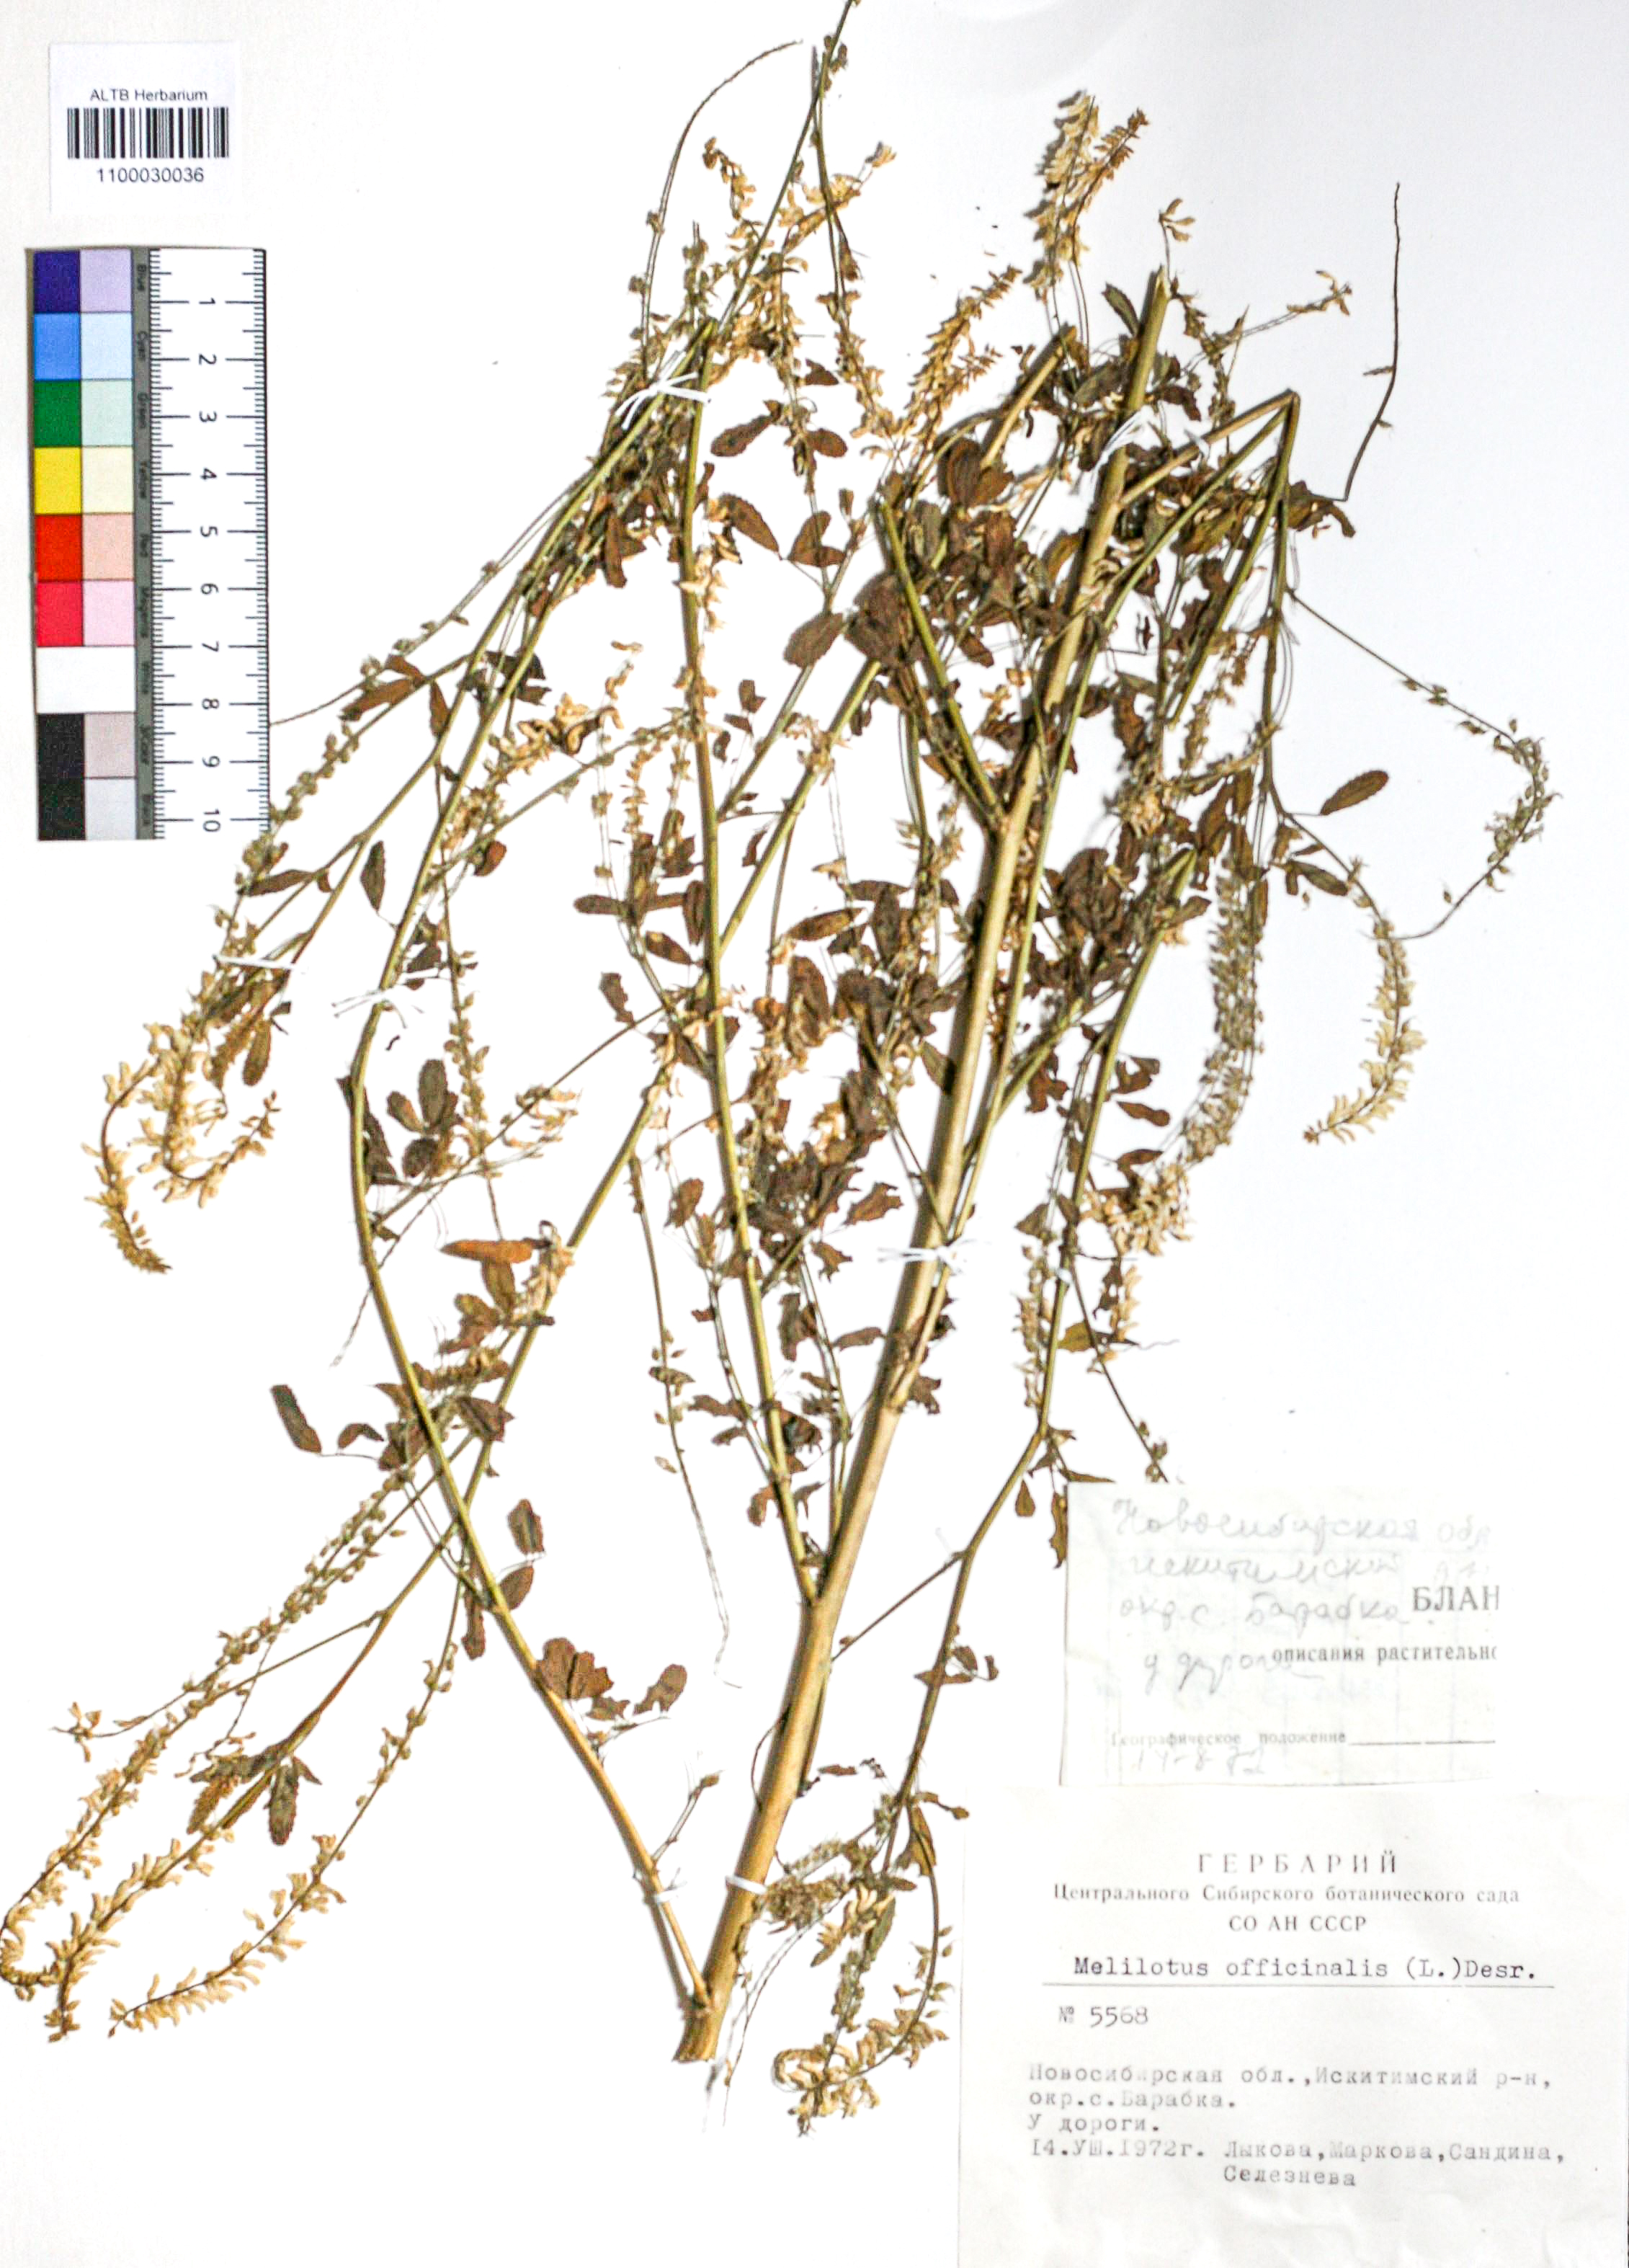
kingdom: Plantae
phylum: Tracheophyta
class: Magnoliopsida
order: Fabales
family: Fabaceae
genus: Melilotus
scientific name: Melilotus officinalis
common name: Sweetclover
